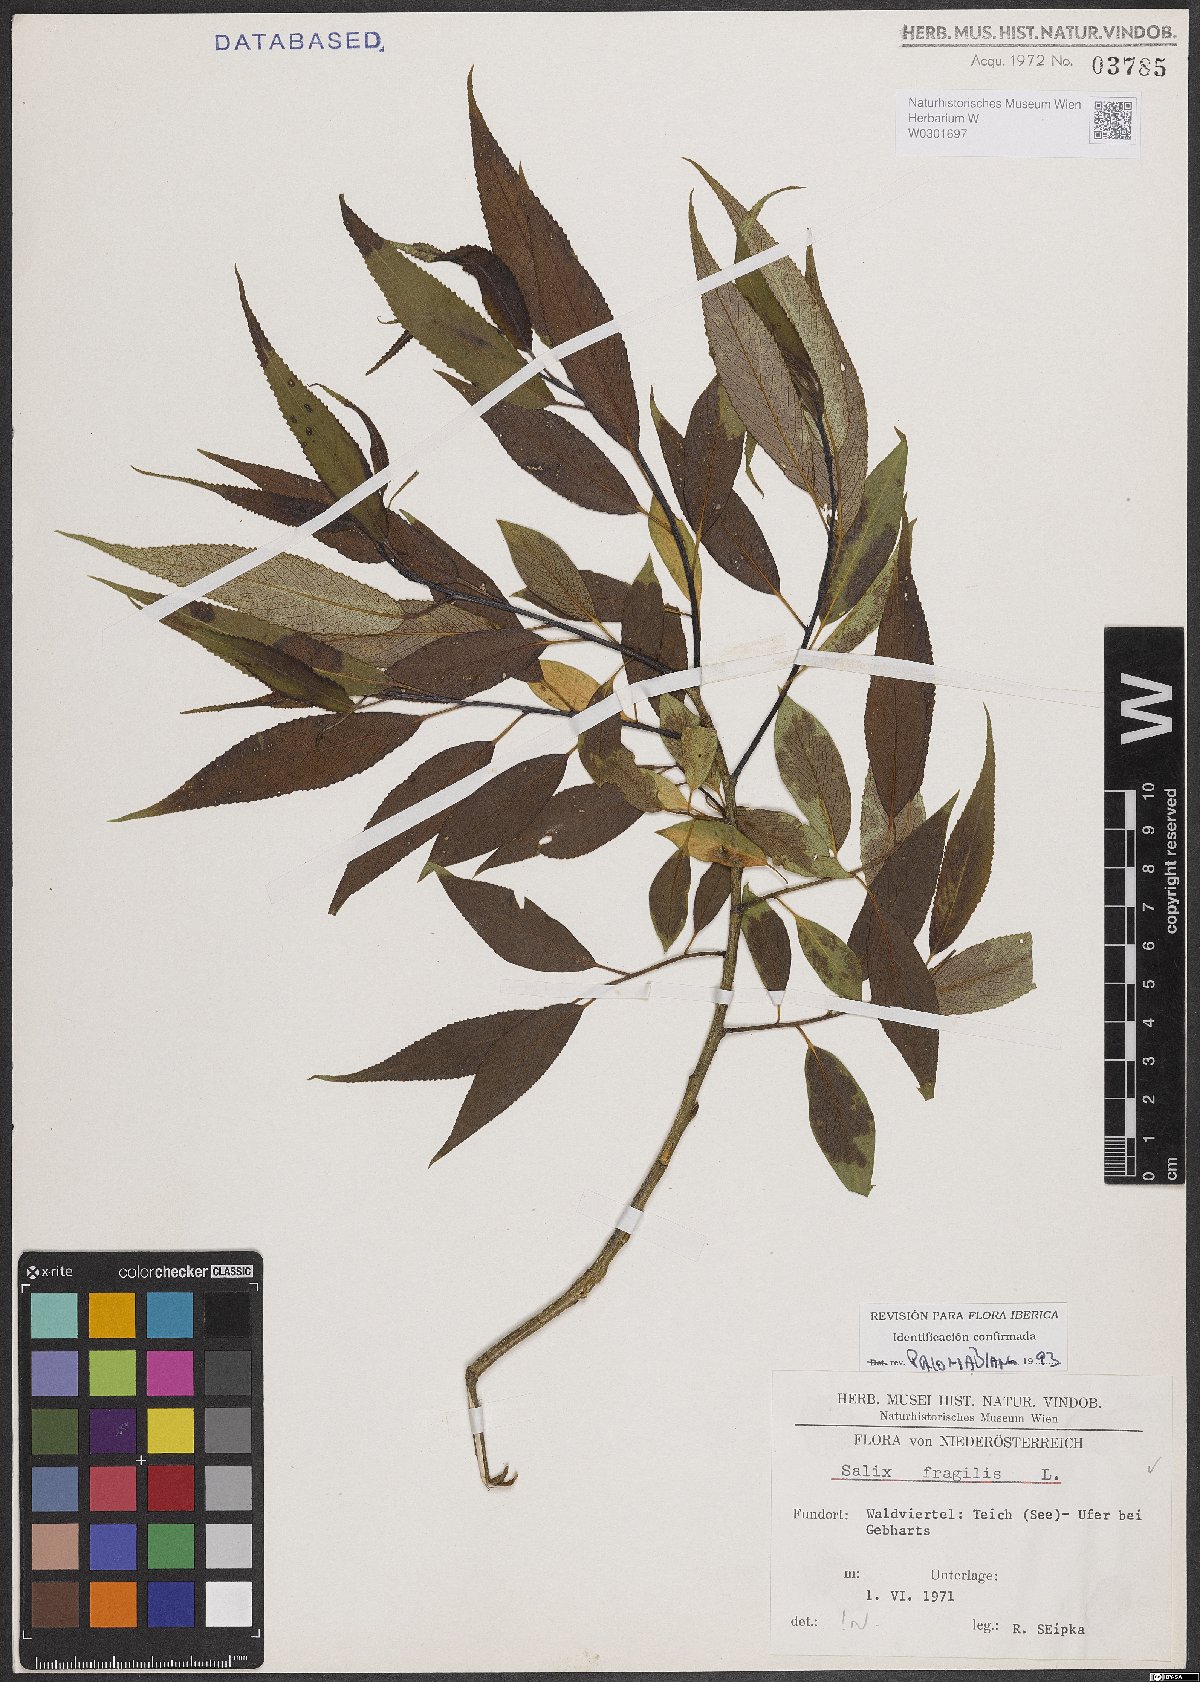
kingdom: Plantae
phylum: Tracheophyta
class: Magnoliopsida
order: Malpighiales
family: Salicaceae
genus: Salix
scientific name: Salix fragilis
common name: Crack willow
